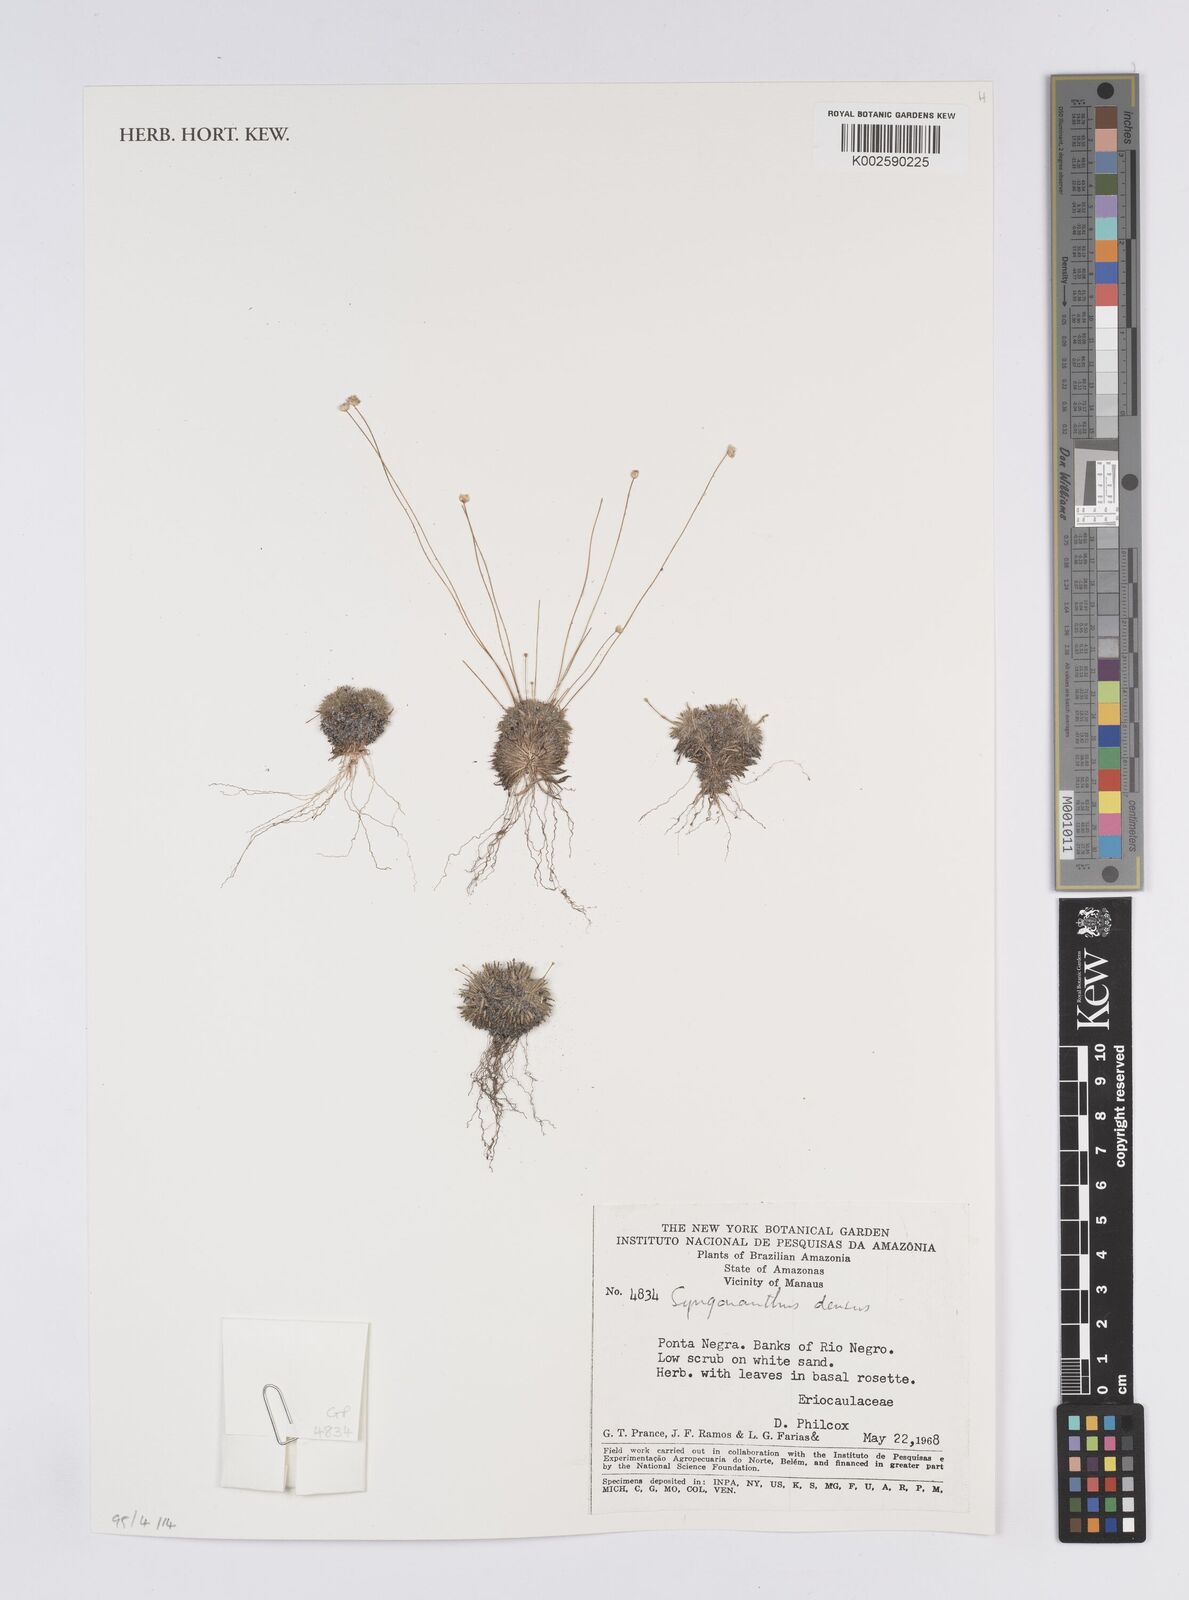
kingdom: Plantae
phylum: Tracheophyta
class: Liliopsida
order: Poales
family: Eriocaulaceae
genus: Syngonanthus
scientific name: Syngonanthus densus
